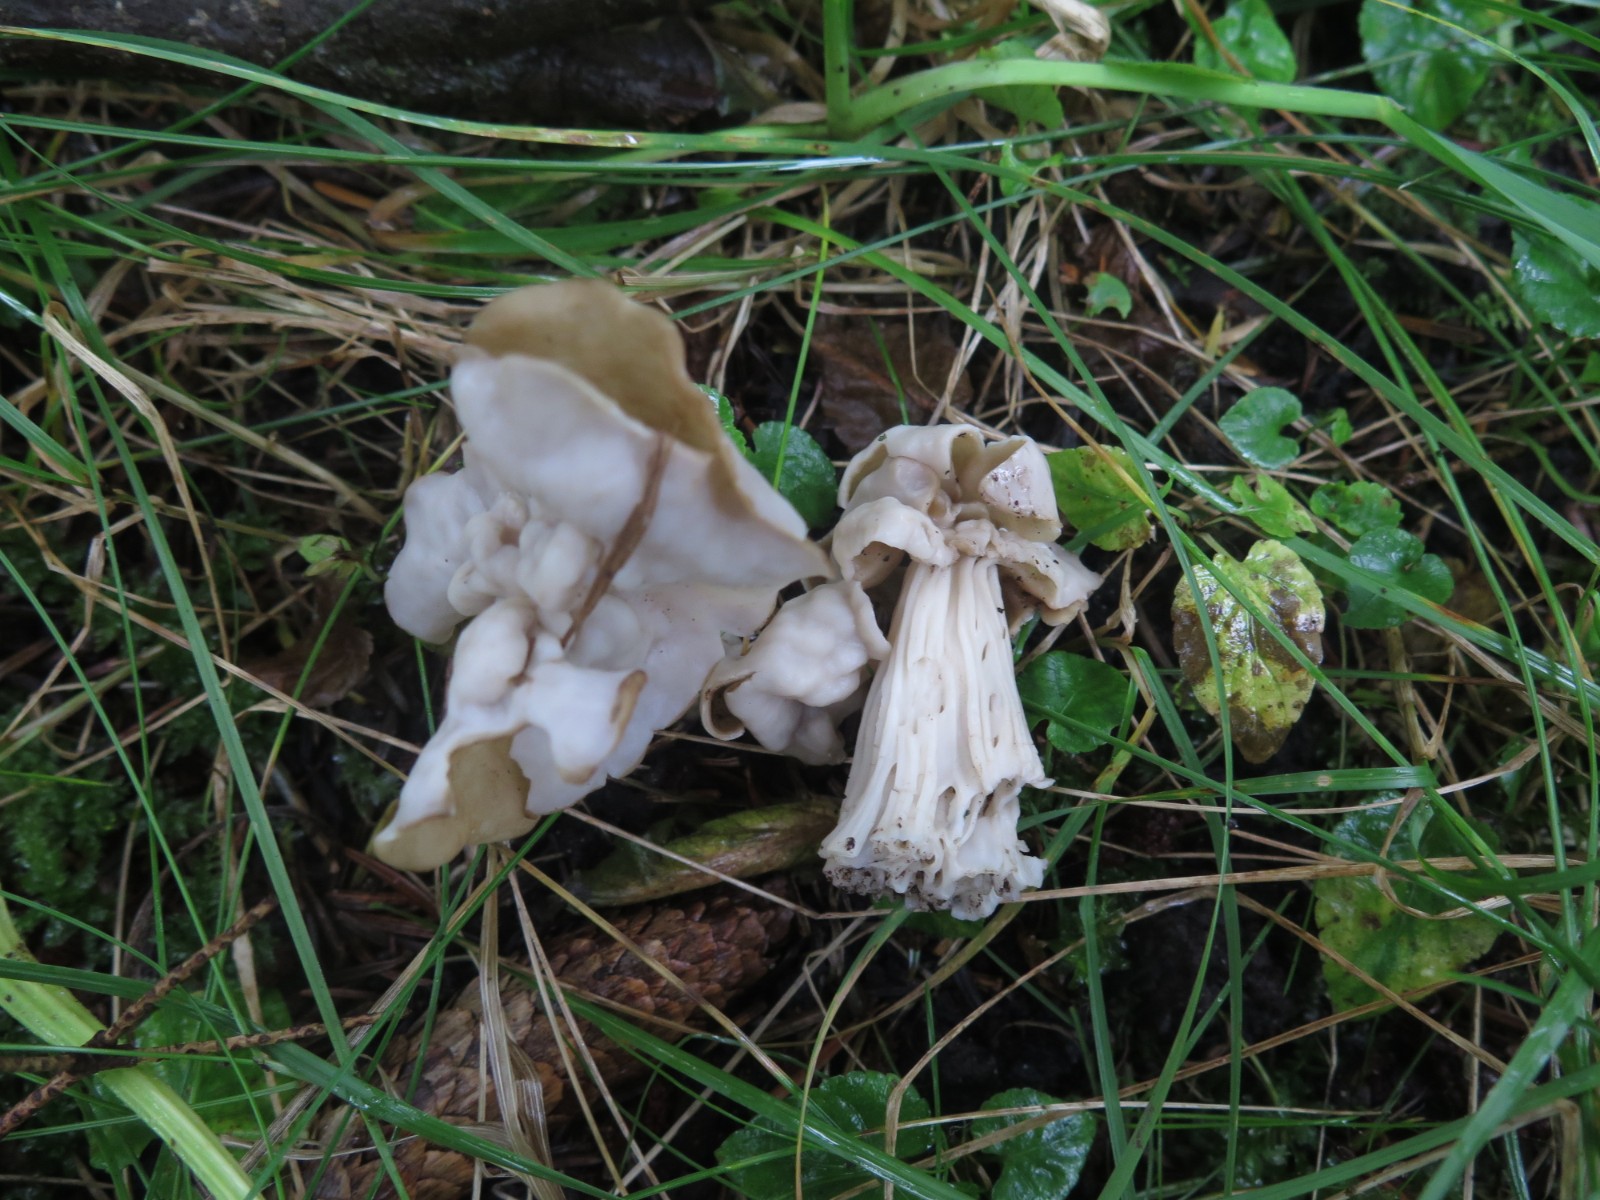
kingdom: Fungi
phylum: Ascomycota
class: Pezizomycetes
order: Pezizales
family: Helvellaceae
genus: Helvella
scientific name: Helvella crispa
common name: kruset foldhat
